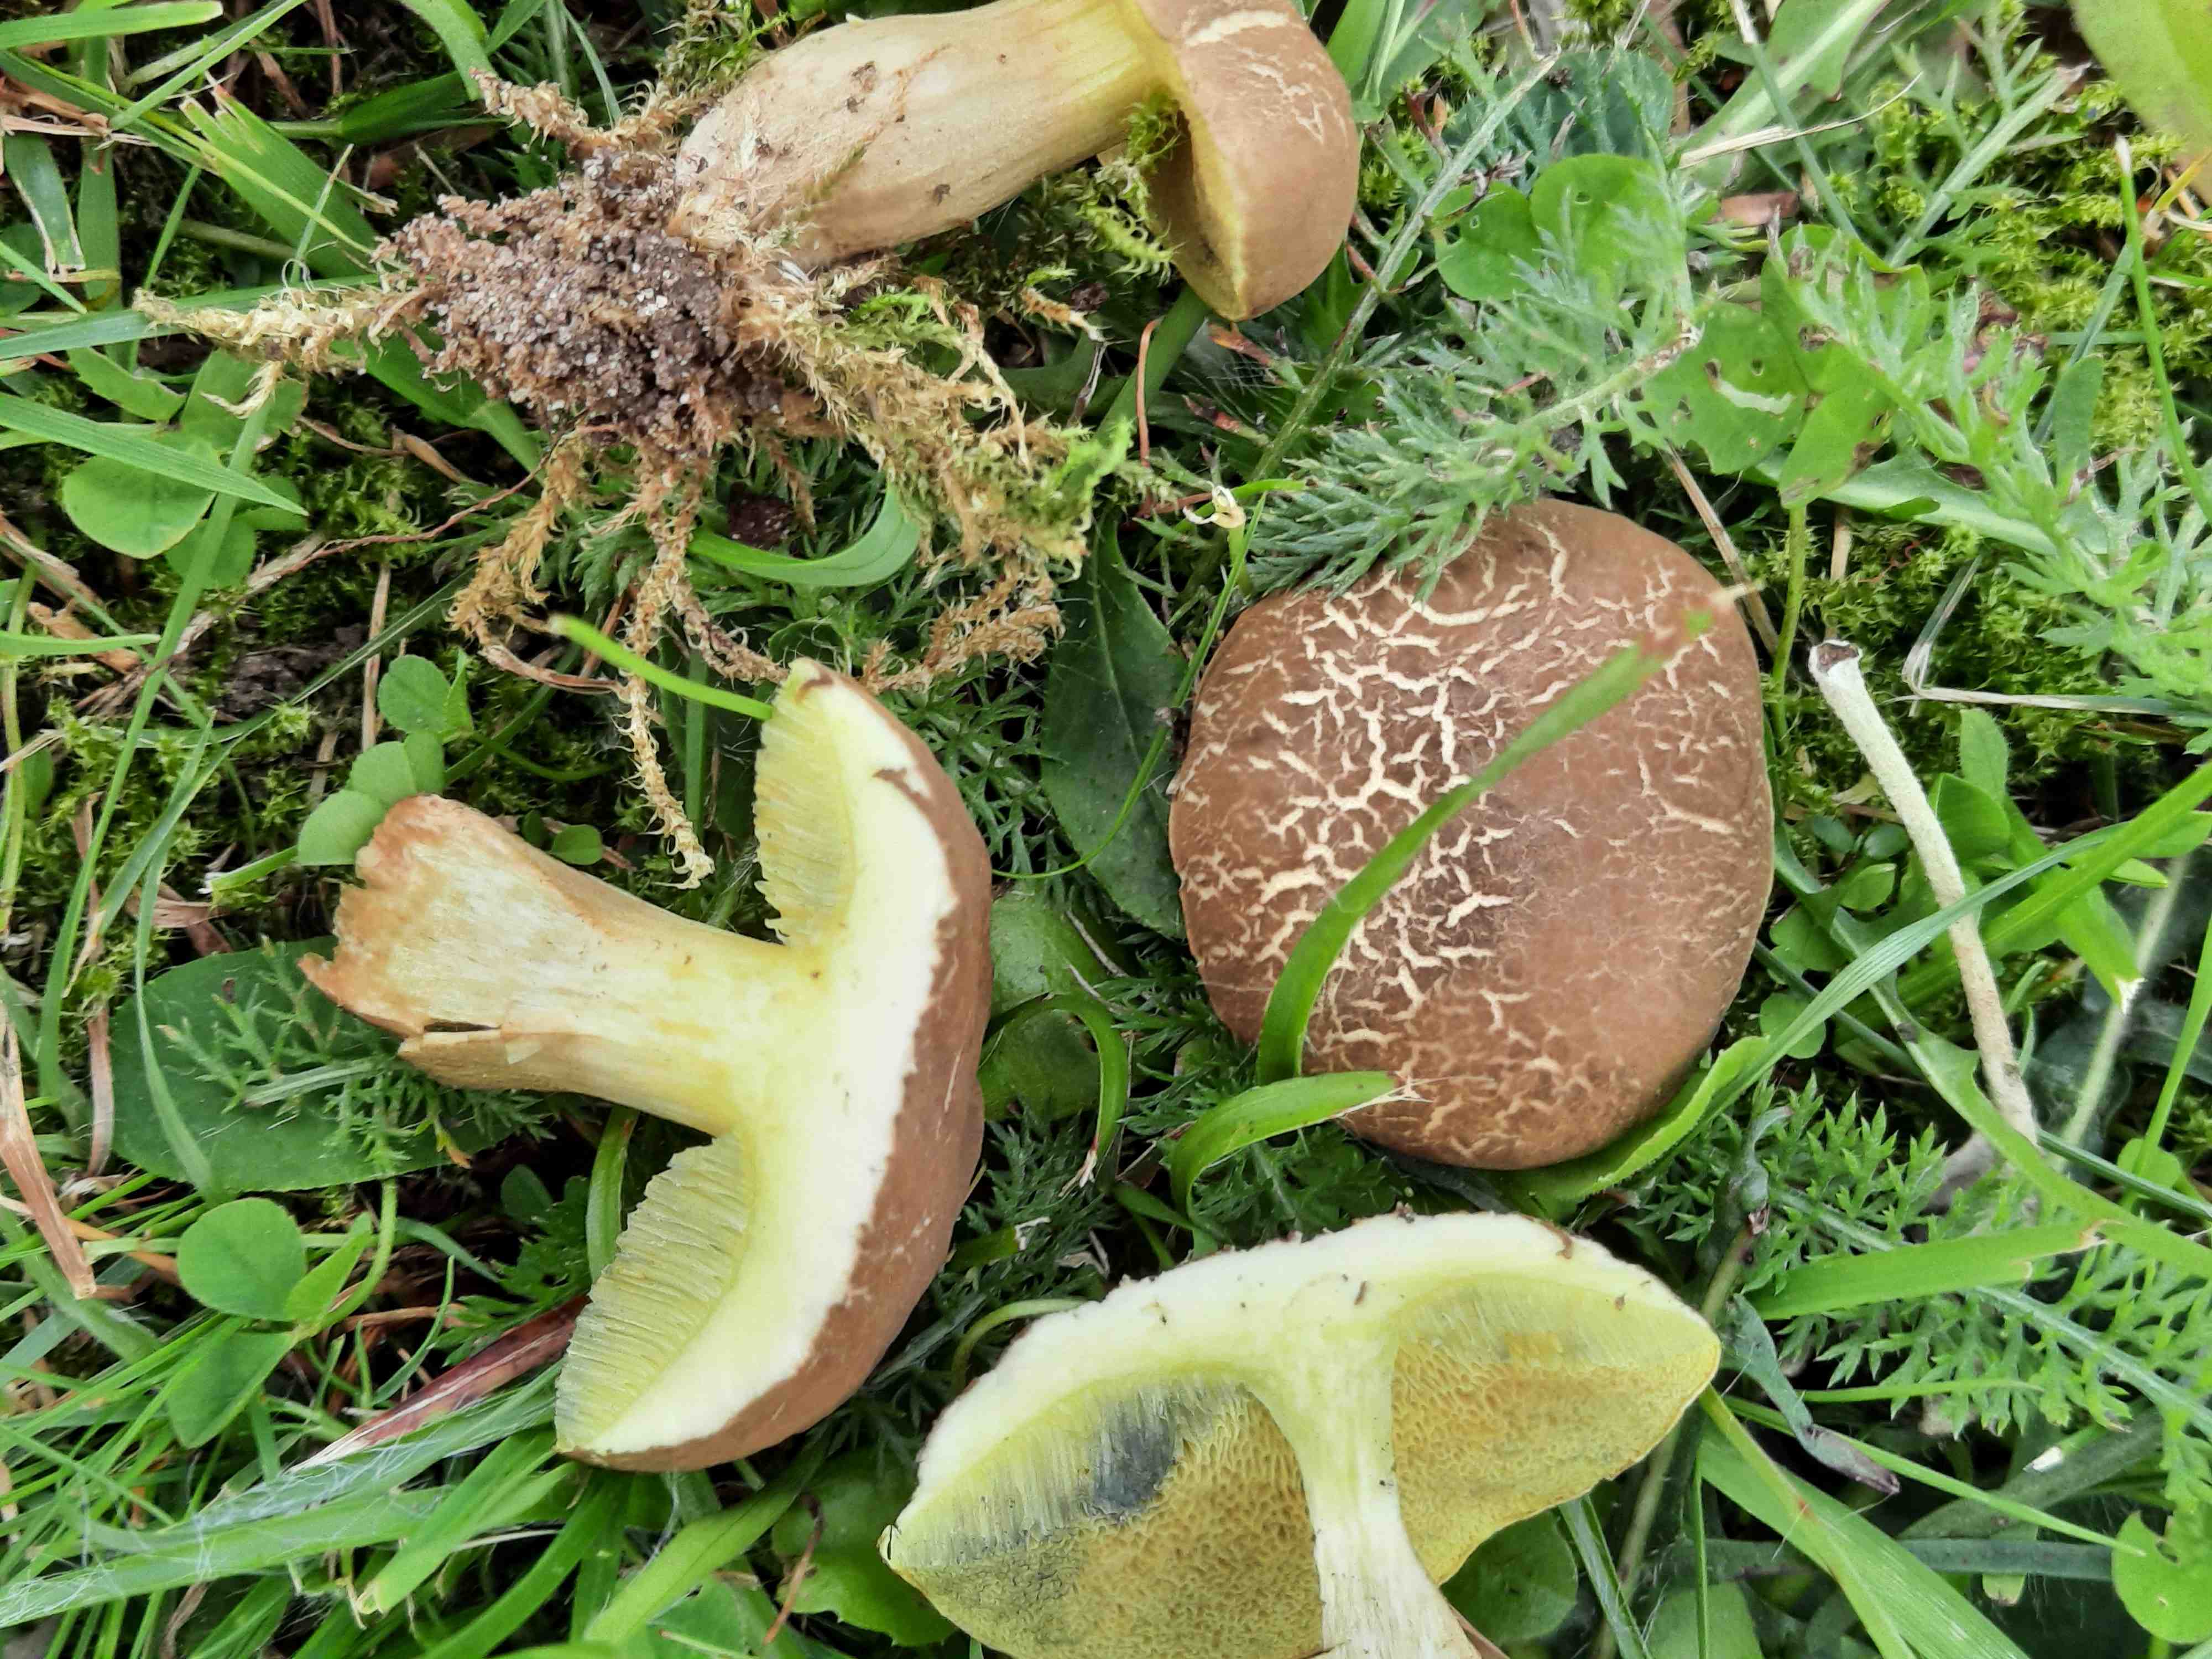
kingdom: Fungi
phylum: Basidiomycota
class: Agaricomycetes
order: Boletales
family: Boletaceae
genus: Xerocomellus
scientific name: Xerocomellus porosporus
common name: hvidsprukken rørhat
